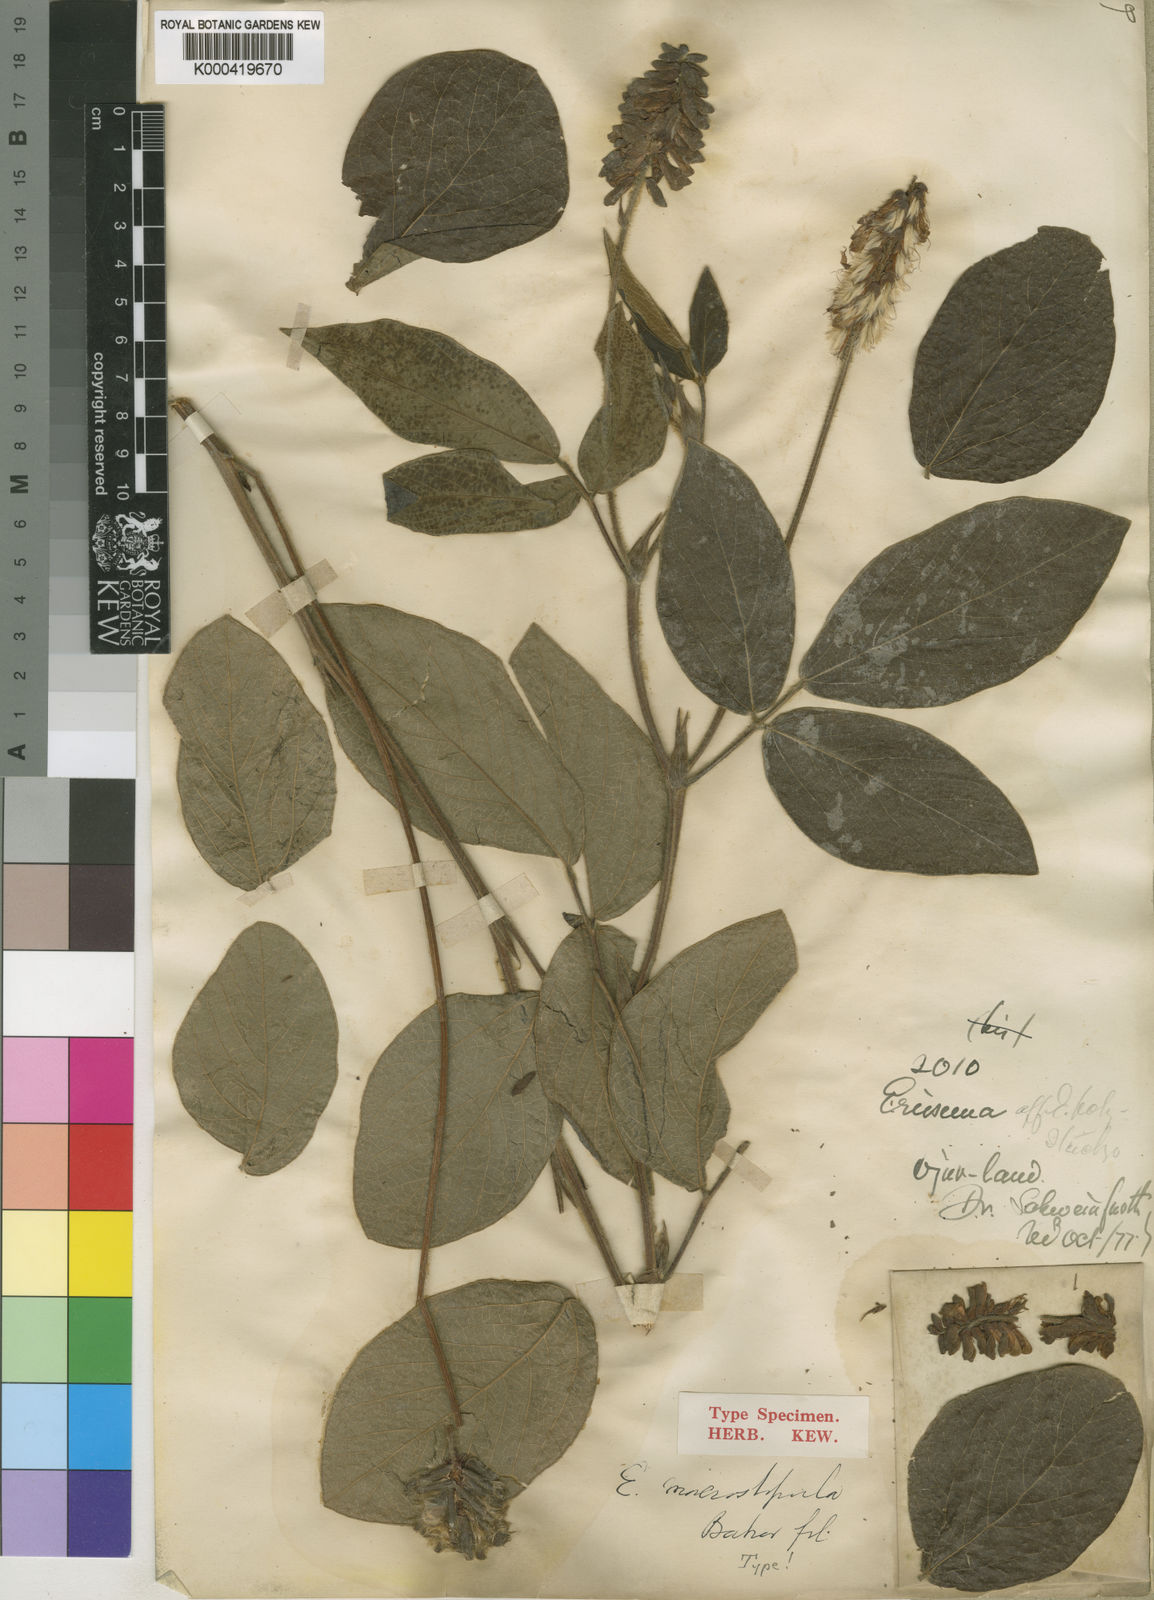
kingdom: Plantae
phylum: Tracheophyta
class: Magnoliopsida
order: Fabales
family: Fabaceae
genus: Eriosema
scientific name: Eriosema macrostipulum
